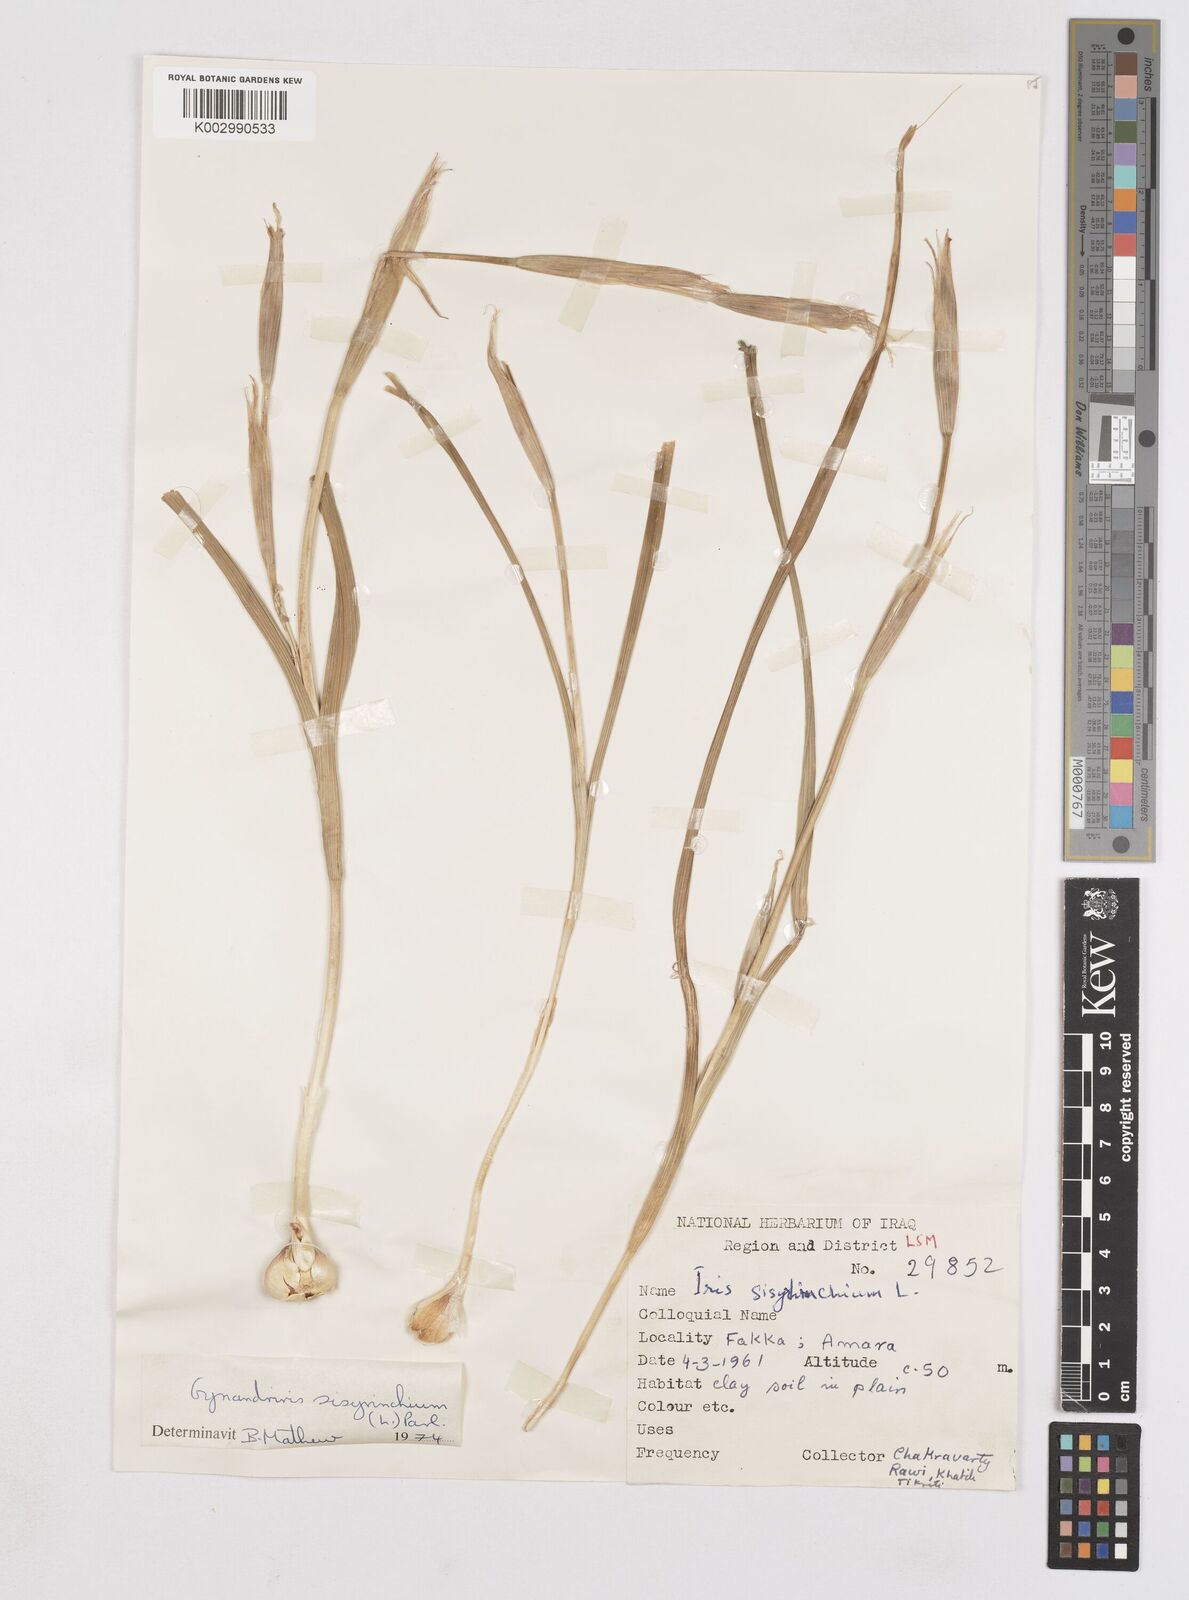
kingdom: Plantae
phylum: Tracheophyta
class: Liliopsida
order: Asparagales
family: Iridaceae
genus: Moraea
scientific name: Moraea sisyrinchium
